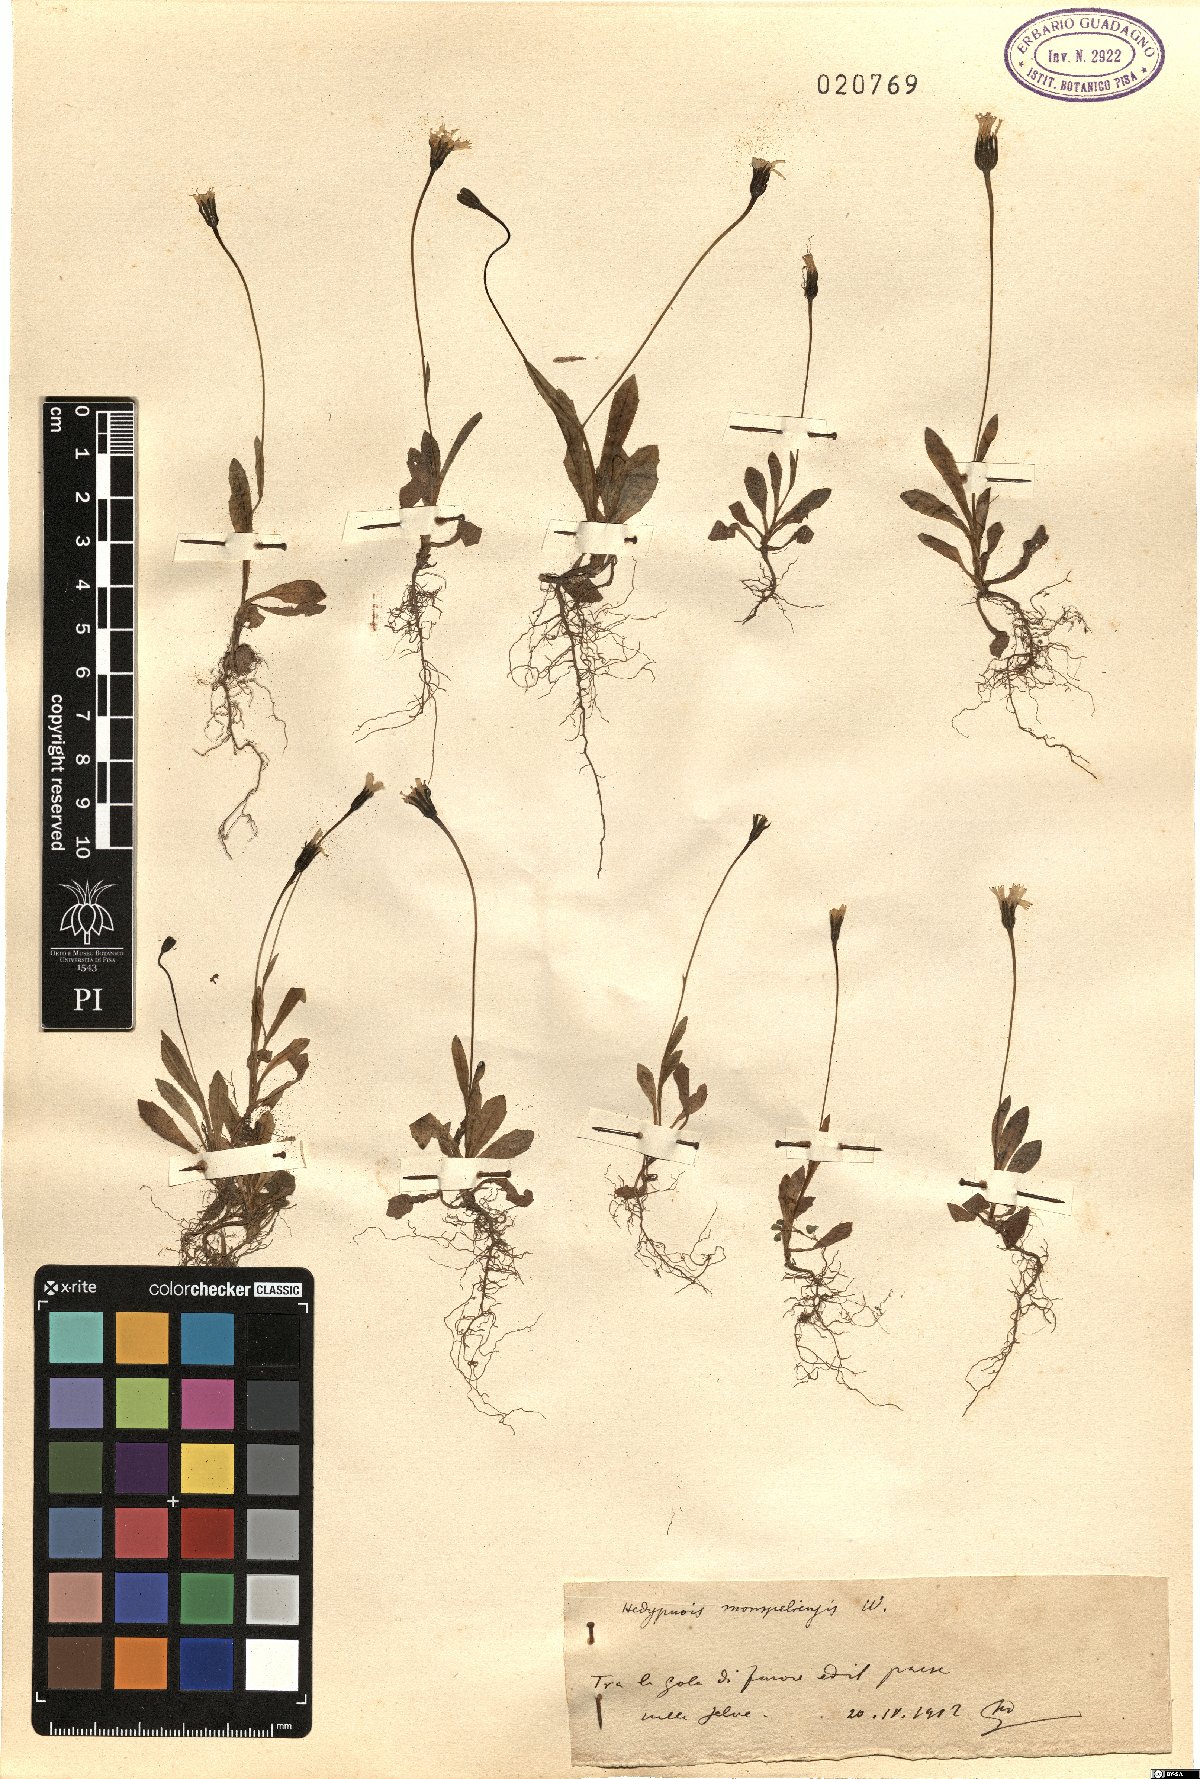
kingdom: Plantae
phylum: Tracheophyta
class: Magnoliopsida
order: Asterales
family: Asteraceae
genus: Hedypnois
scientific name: Hedypnois rhagadioloides
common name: Cretan weed
